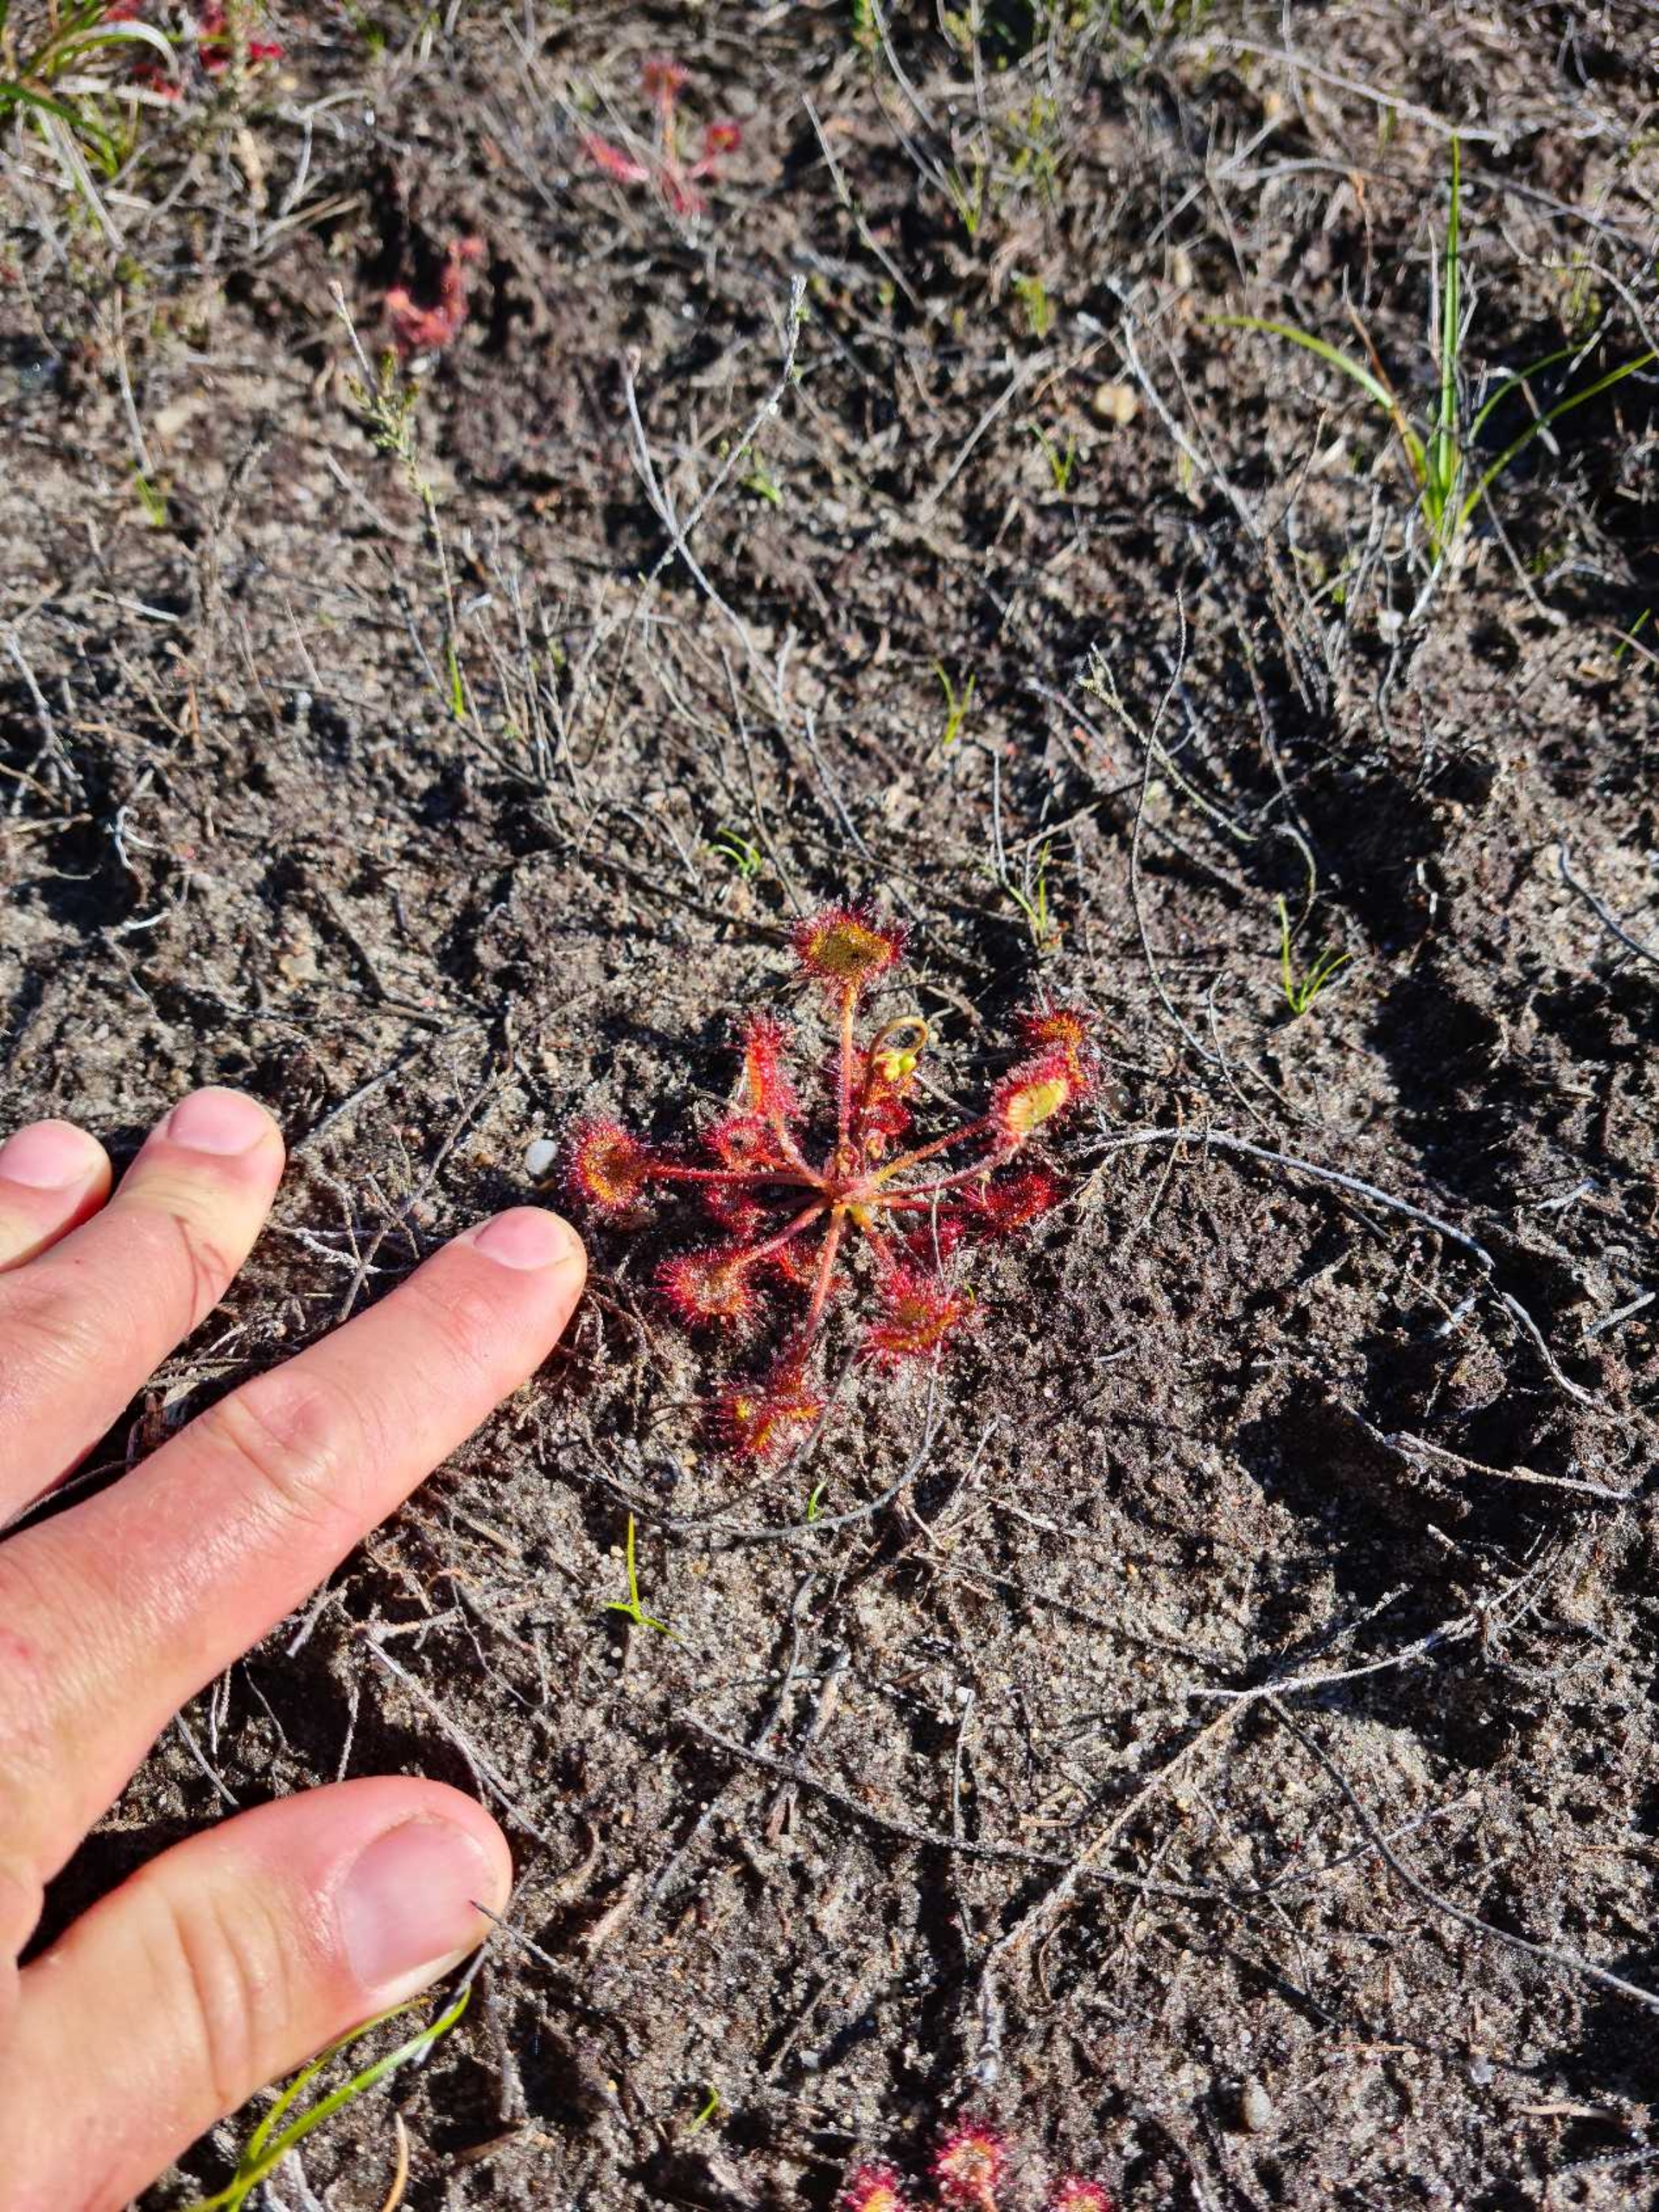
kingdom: Plantae
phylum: Tracheophyta
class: Magnoliopsida
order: Caryophyllales
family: Droseraceae
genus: Drosera
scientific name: Drosera rotundifolia
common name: Rundbladet soldug
